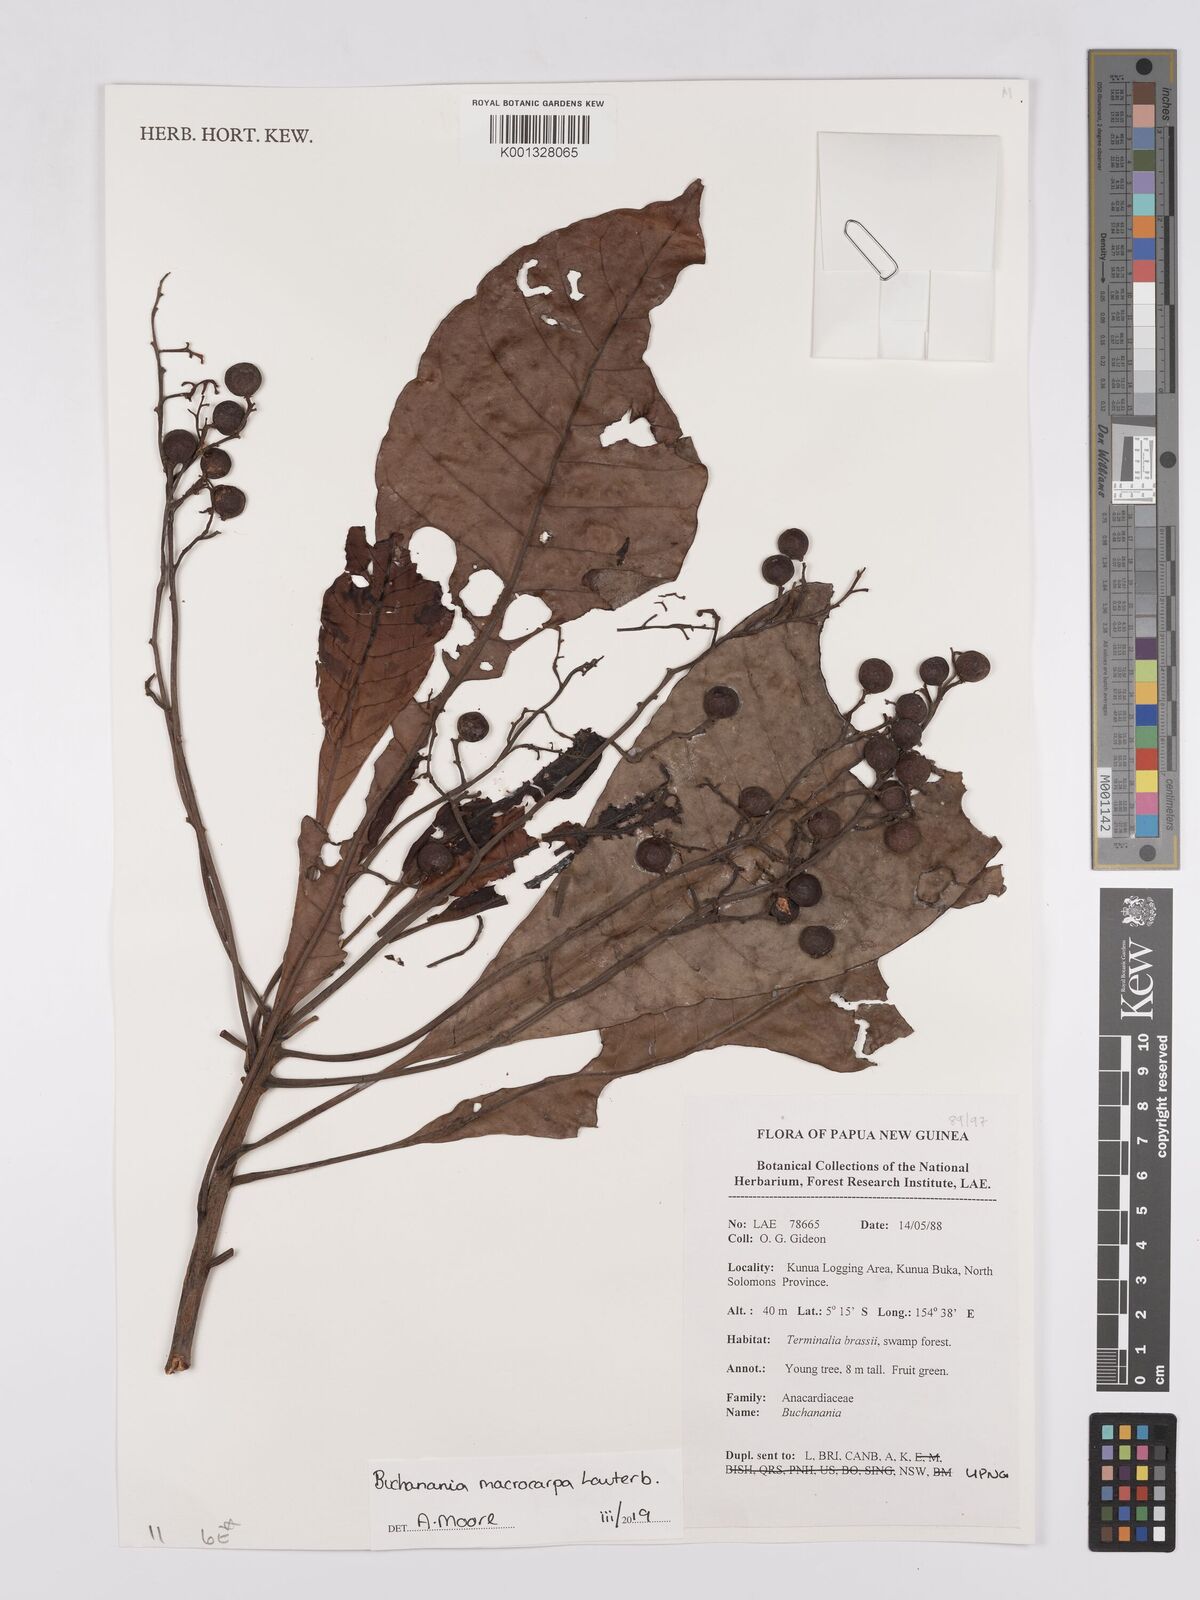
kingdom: Plantae
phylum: Tracheophyta
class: Magnoliopsida
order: Sapindales
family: Anacardiaceae
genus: Buchanania
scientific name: Buchanania macrocarpa
